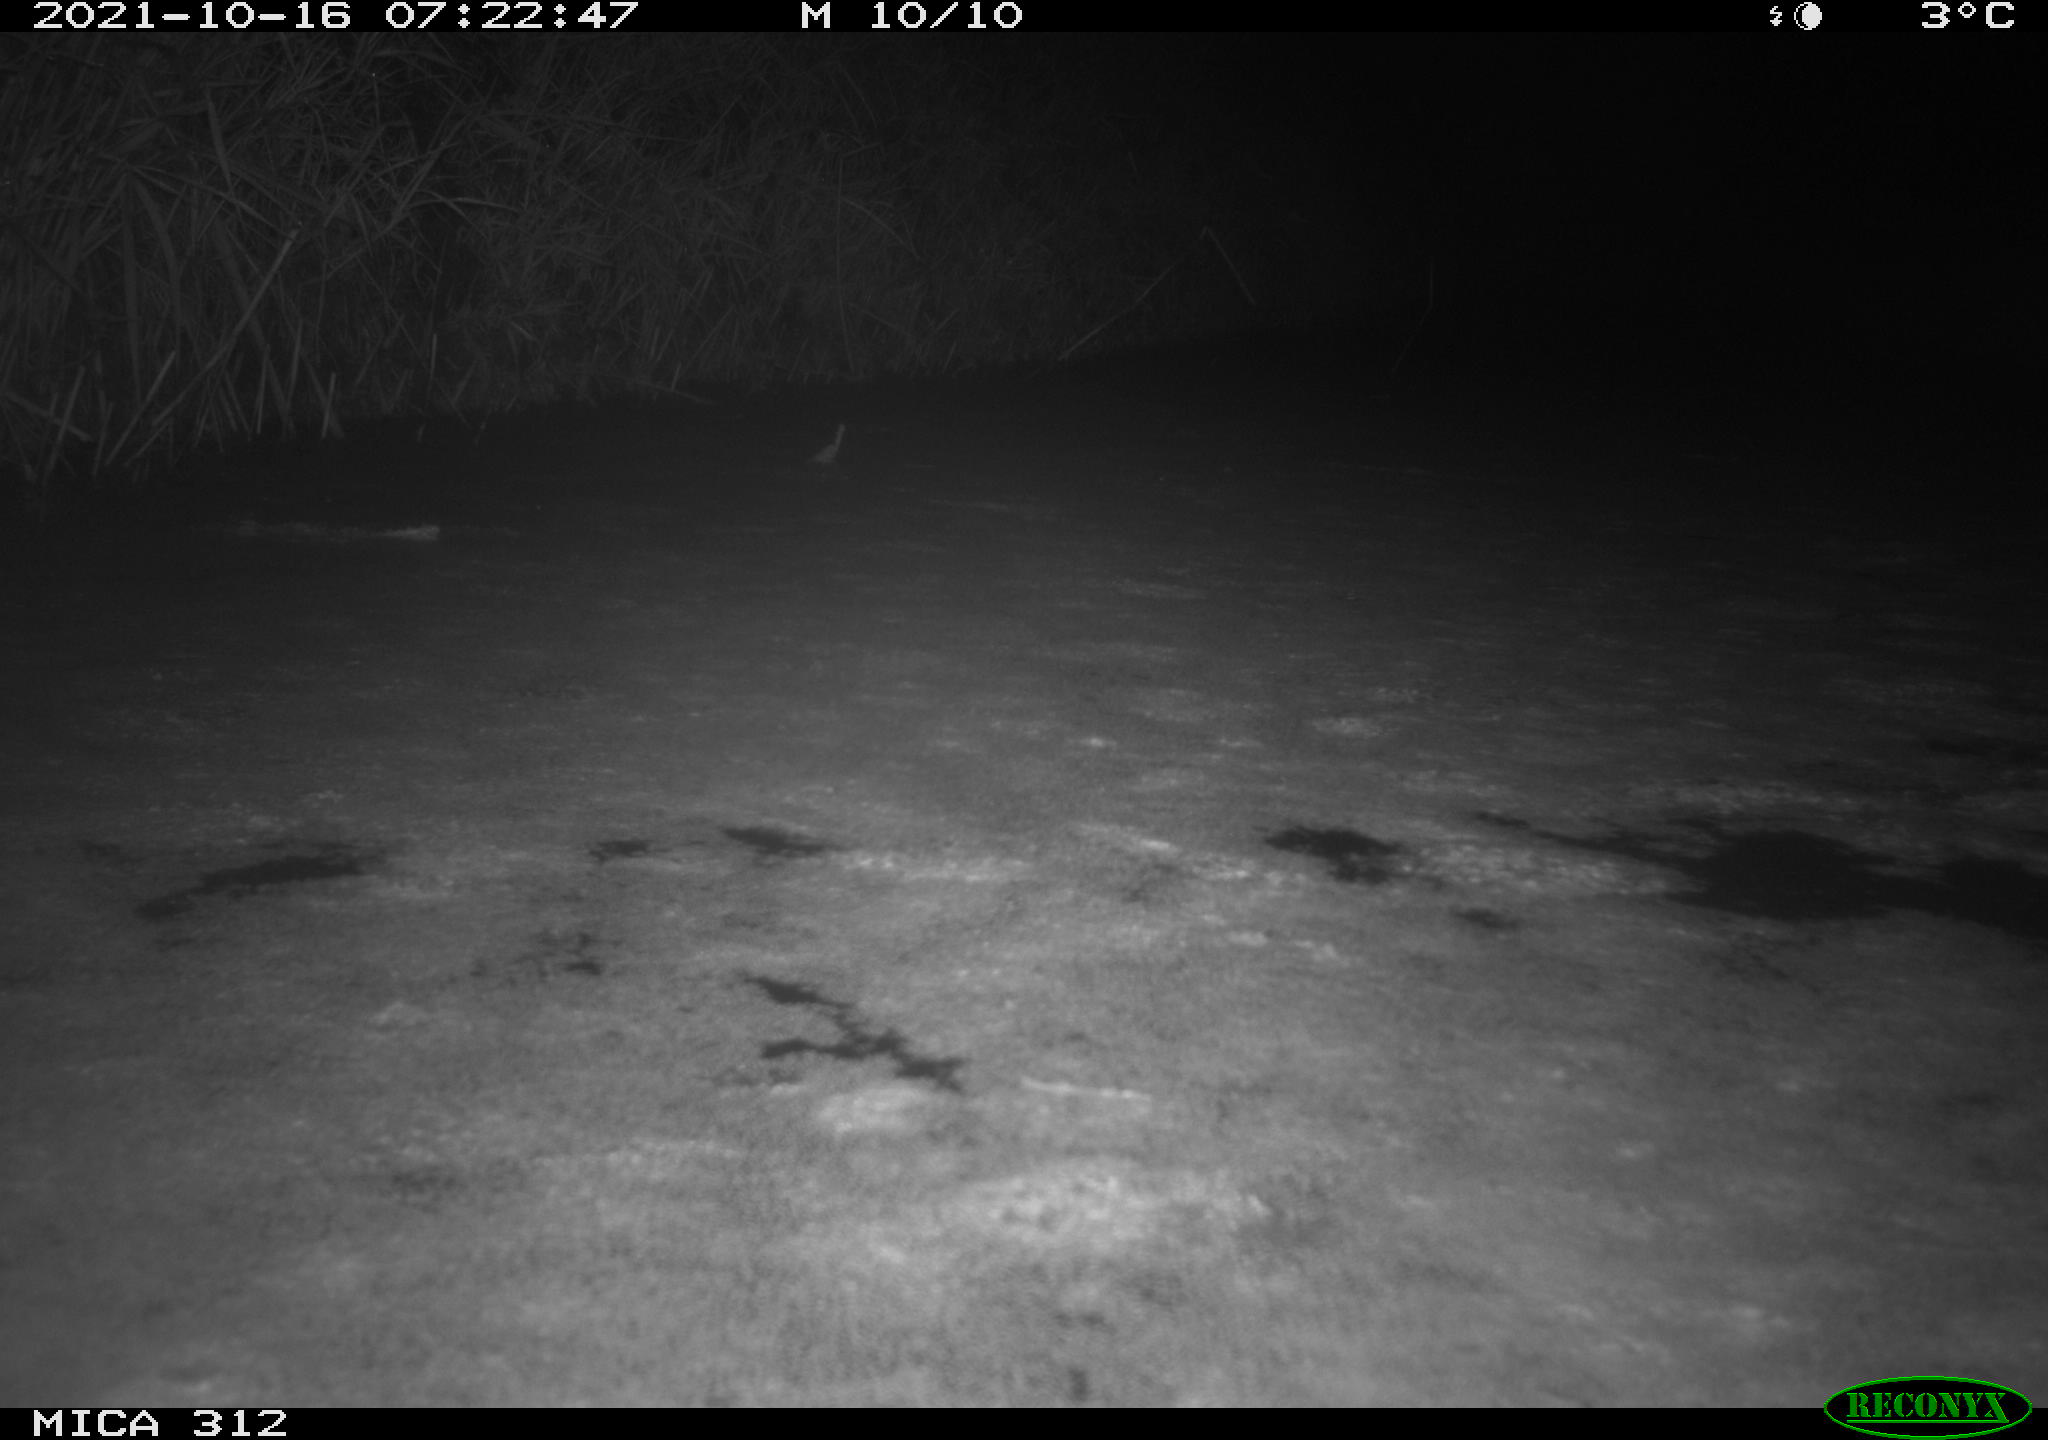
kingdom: Animalia
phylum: Chordata
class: Mammalia
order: Rodentia
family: Muridae
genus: Rattus
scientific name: Rattus norvegicus
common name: Brown rat
